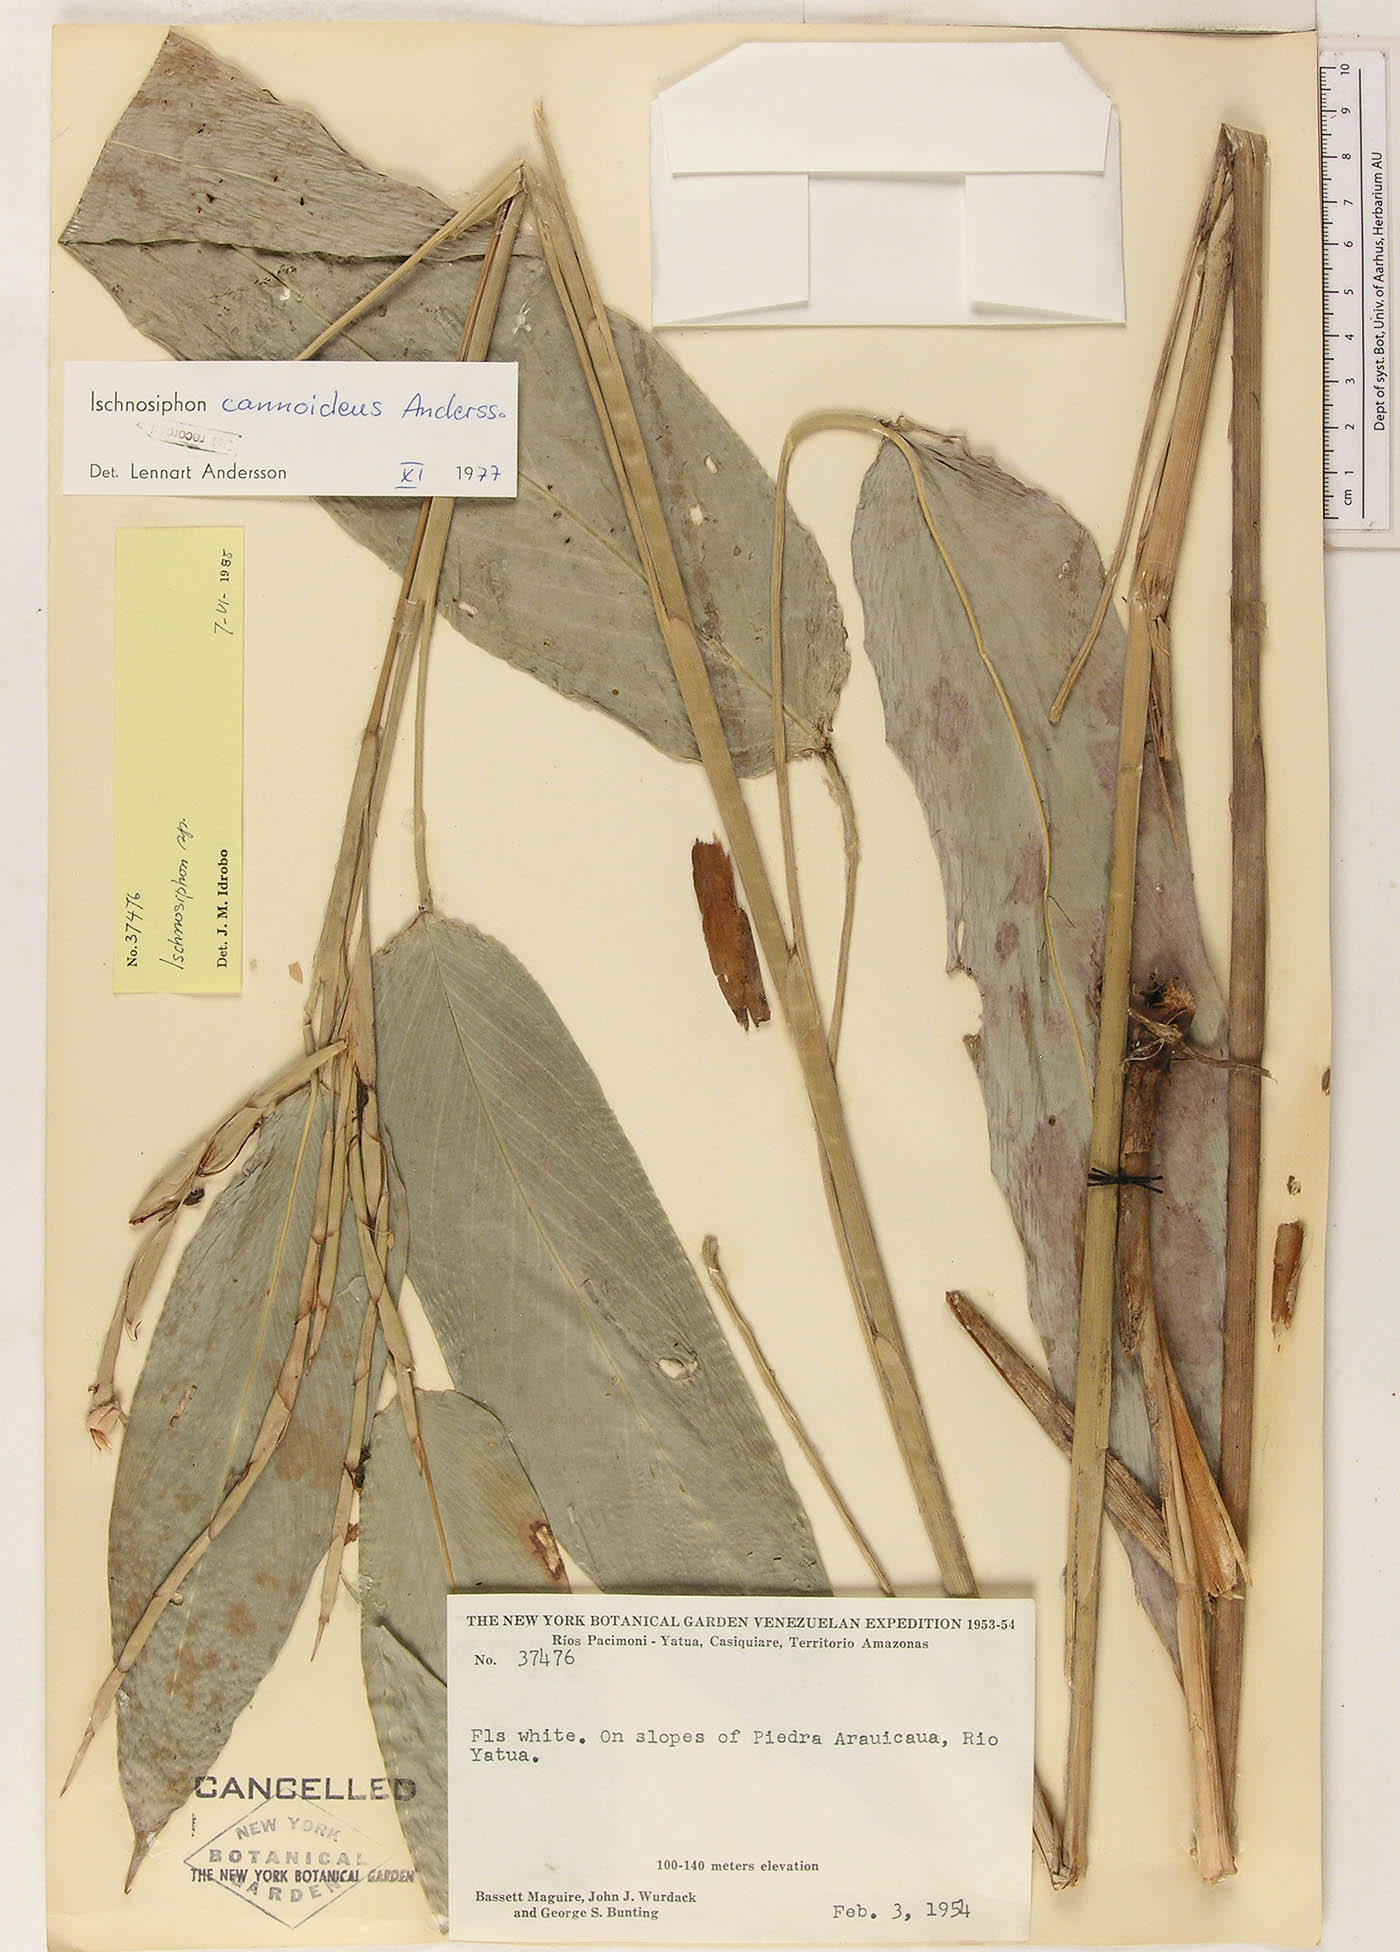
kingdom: Plantae
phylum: Tracheophyta
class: Liliopsida
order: Zingiberales
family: Marantaceae
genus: Ischnosiphon
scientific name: Ischnosiphon cannoideus
